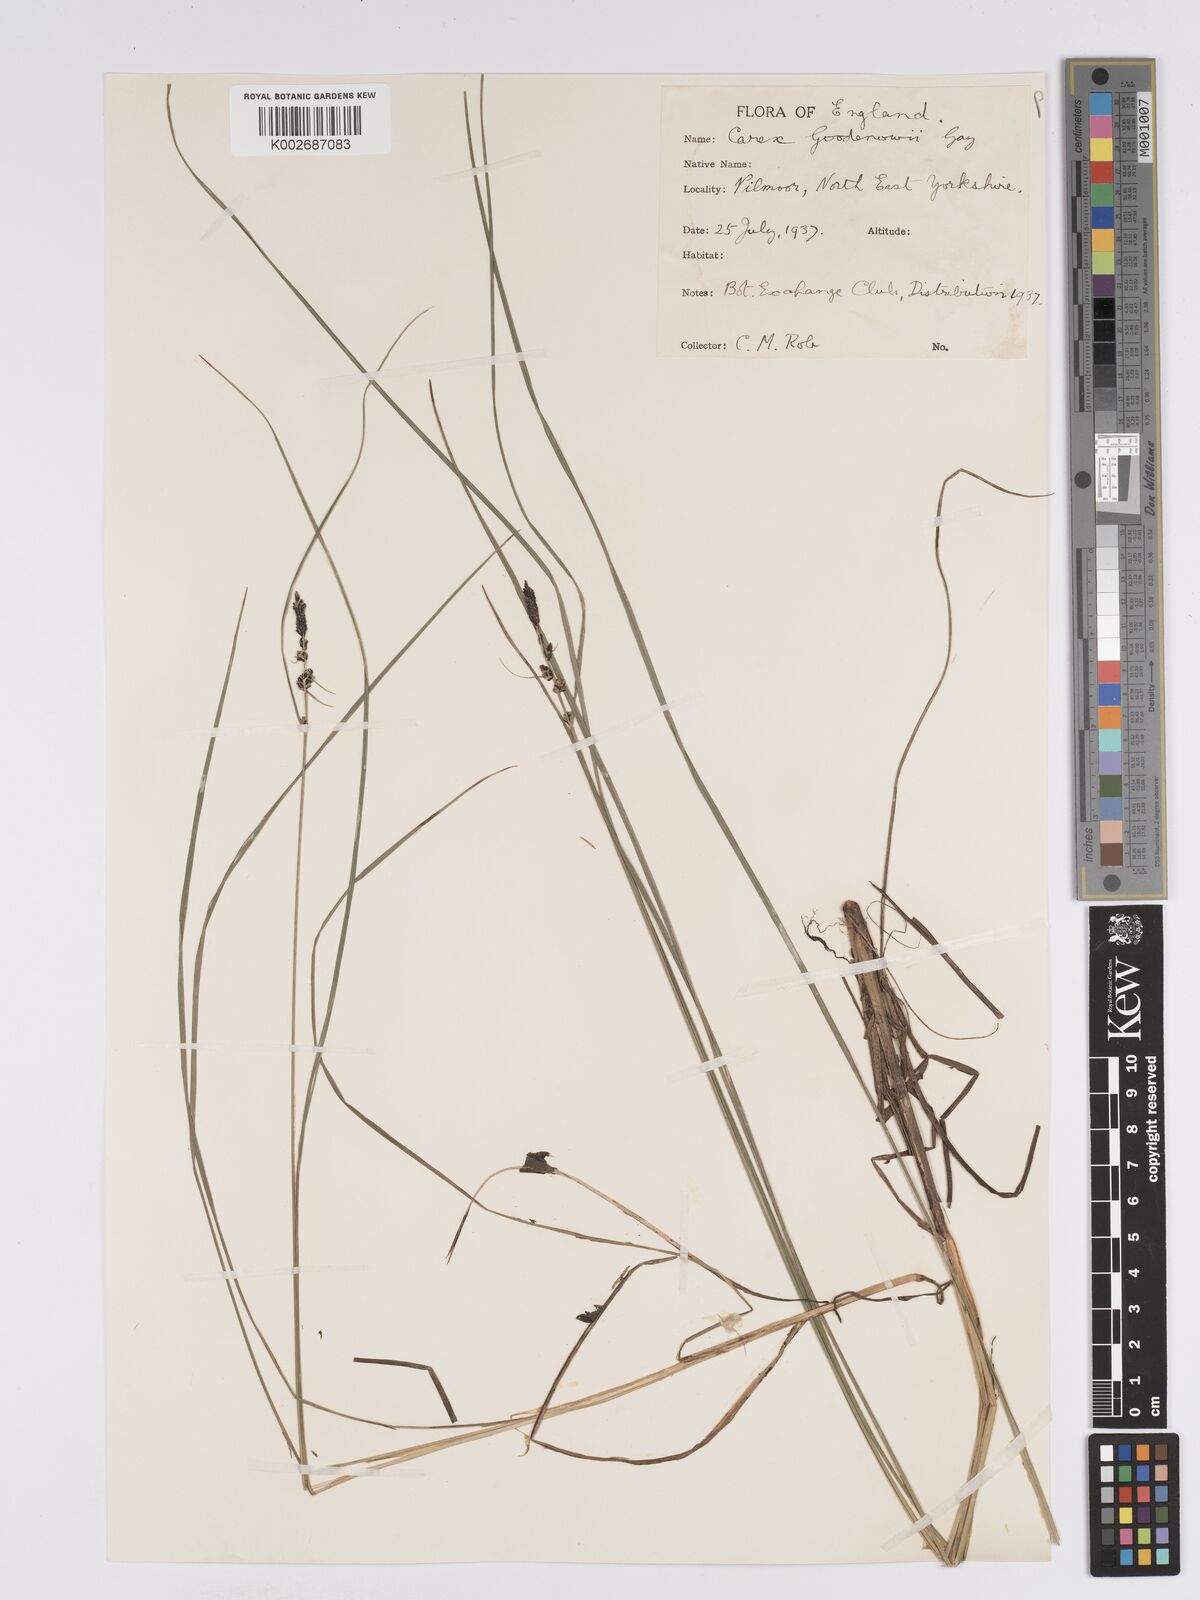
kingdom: Plantae
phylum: Tracheophyta
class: Liliopsida
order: Poales
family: Cyperaceae
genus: Carex
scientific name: Carex nigra
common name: Common sedge
